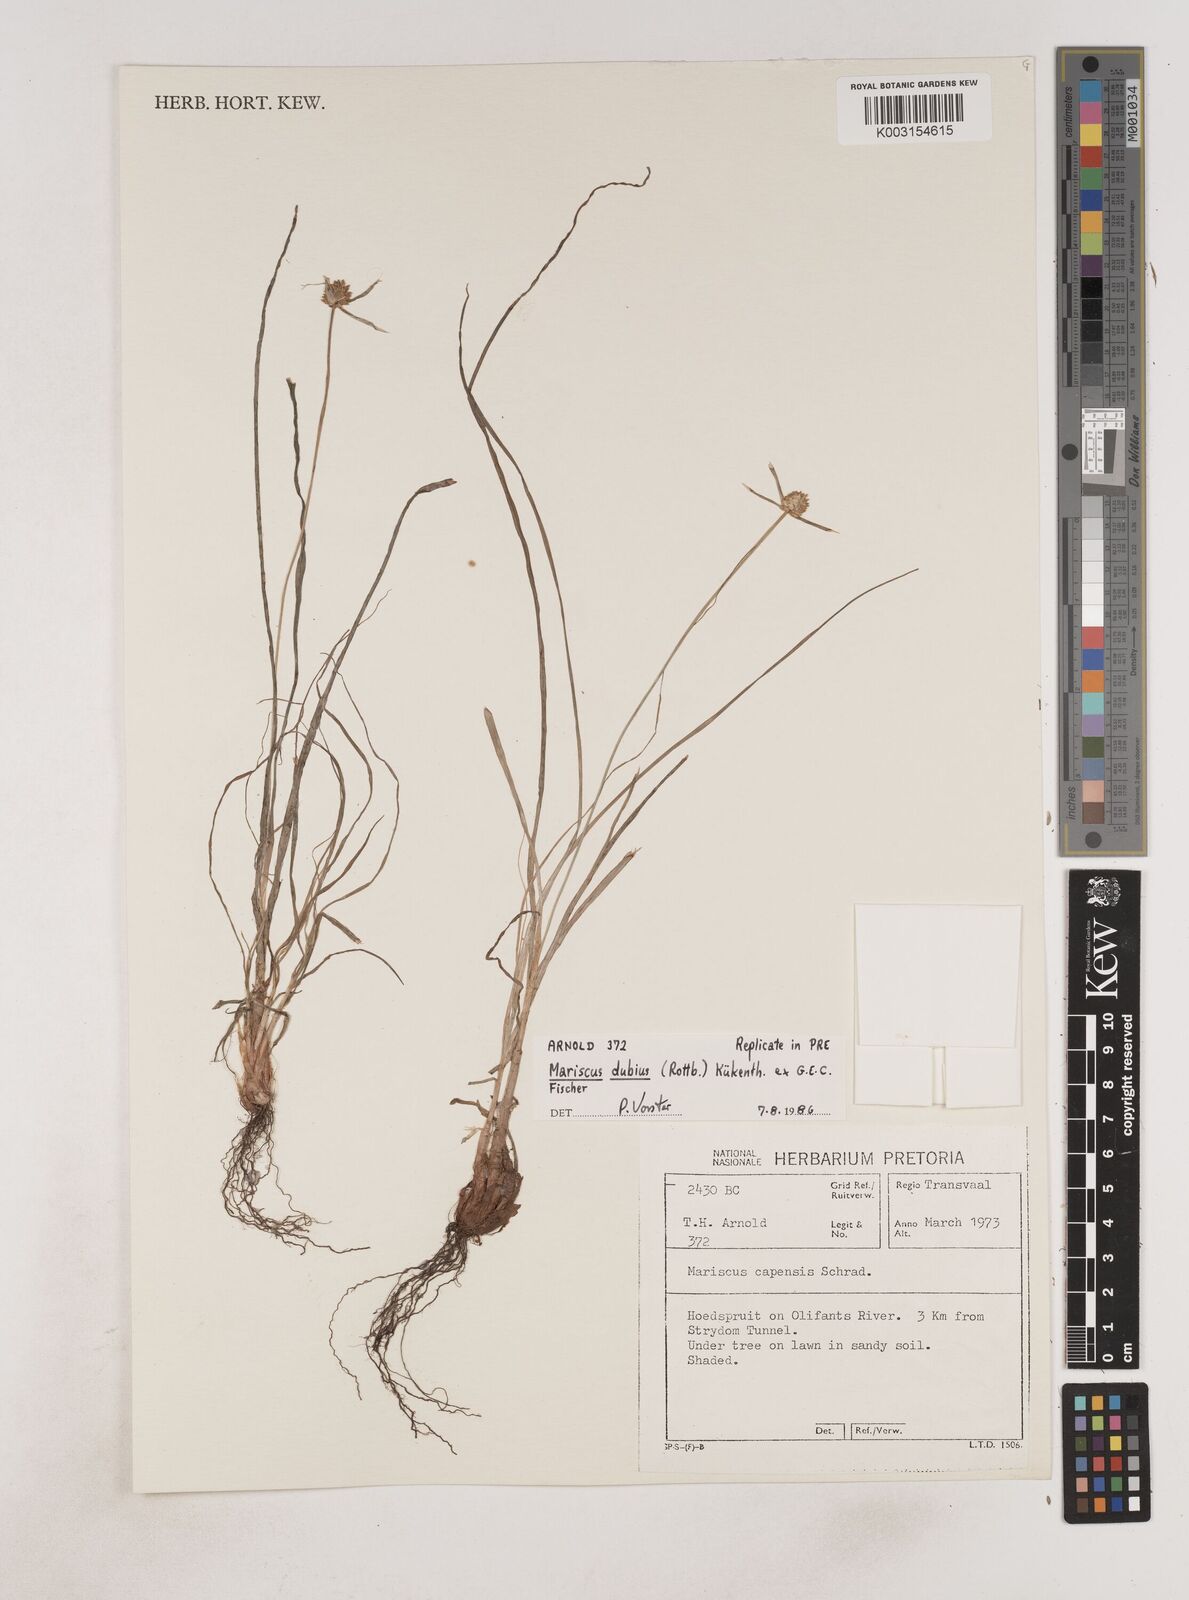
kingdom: Plantae
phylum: Tracheophyta
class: Liliopsida
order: Poales
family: Cyperaceae
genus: Cyperus
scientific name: Cyperus dubius
